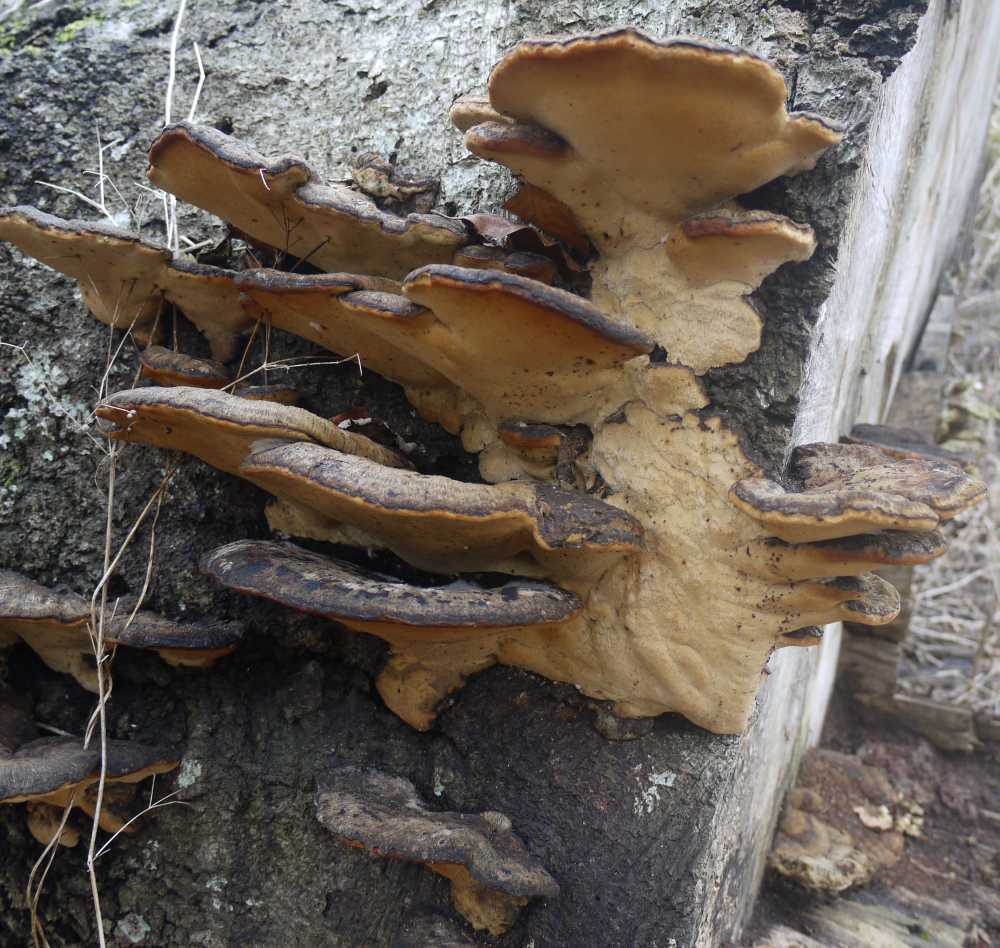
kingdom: Fungi
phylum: Basidiomycota
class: Agaricomycetes
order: Polyporales
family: Ischnodermataceae
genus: Ischnoderma
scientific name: Ischnoderma resinosum
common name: løv-tjæreporesvamp
